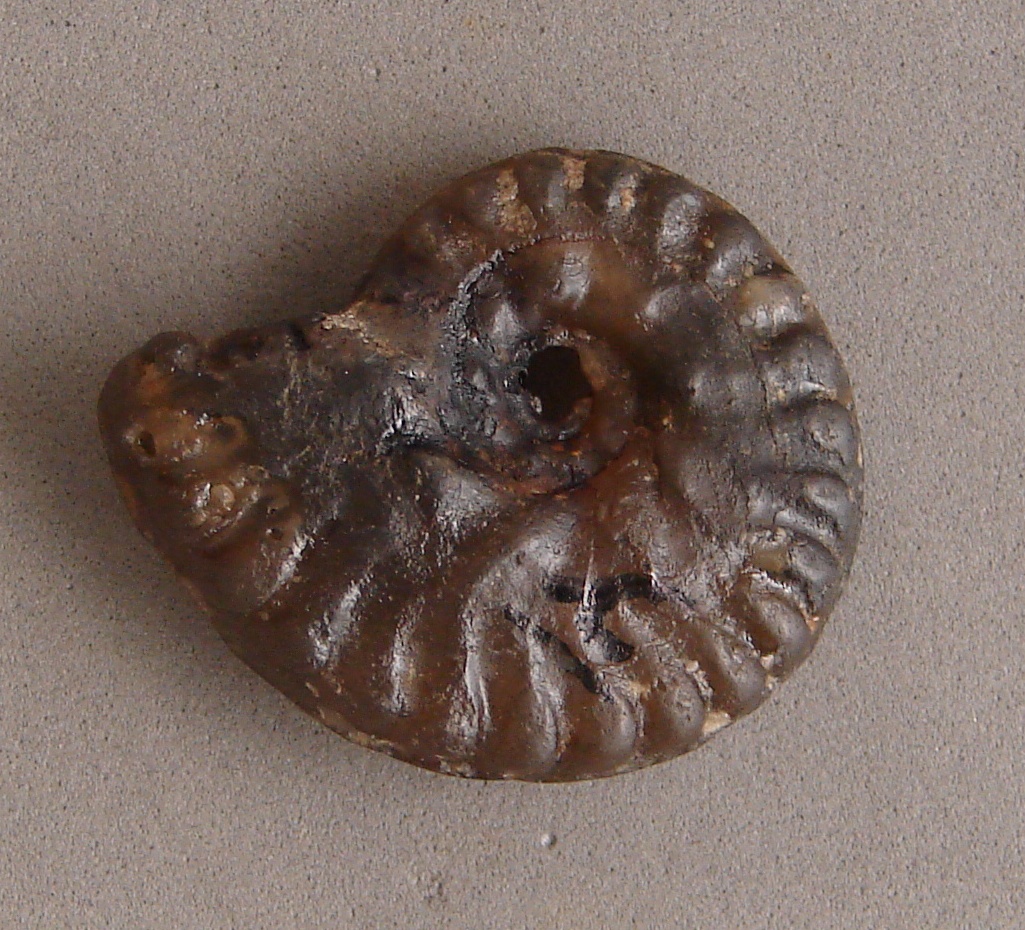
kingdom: Chromista
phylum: Ochrophyta
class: Bacillariophyceae
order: Chaetocerotales
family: Acanthocerataceae
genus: Hysteroceras
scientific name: Hysteroceras varicosum
